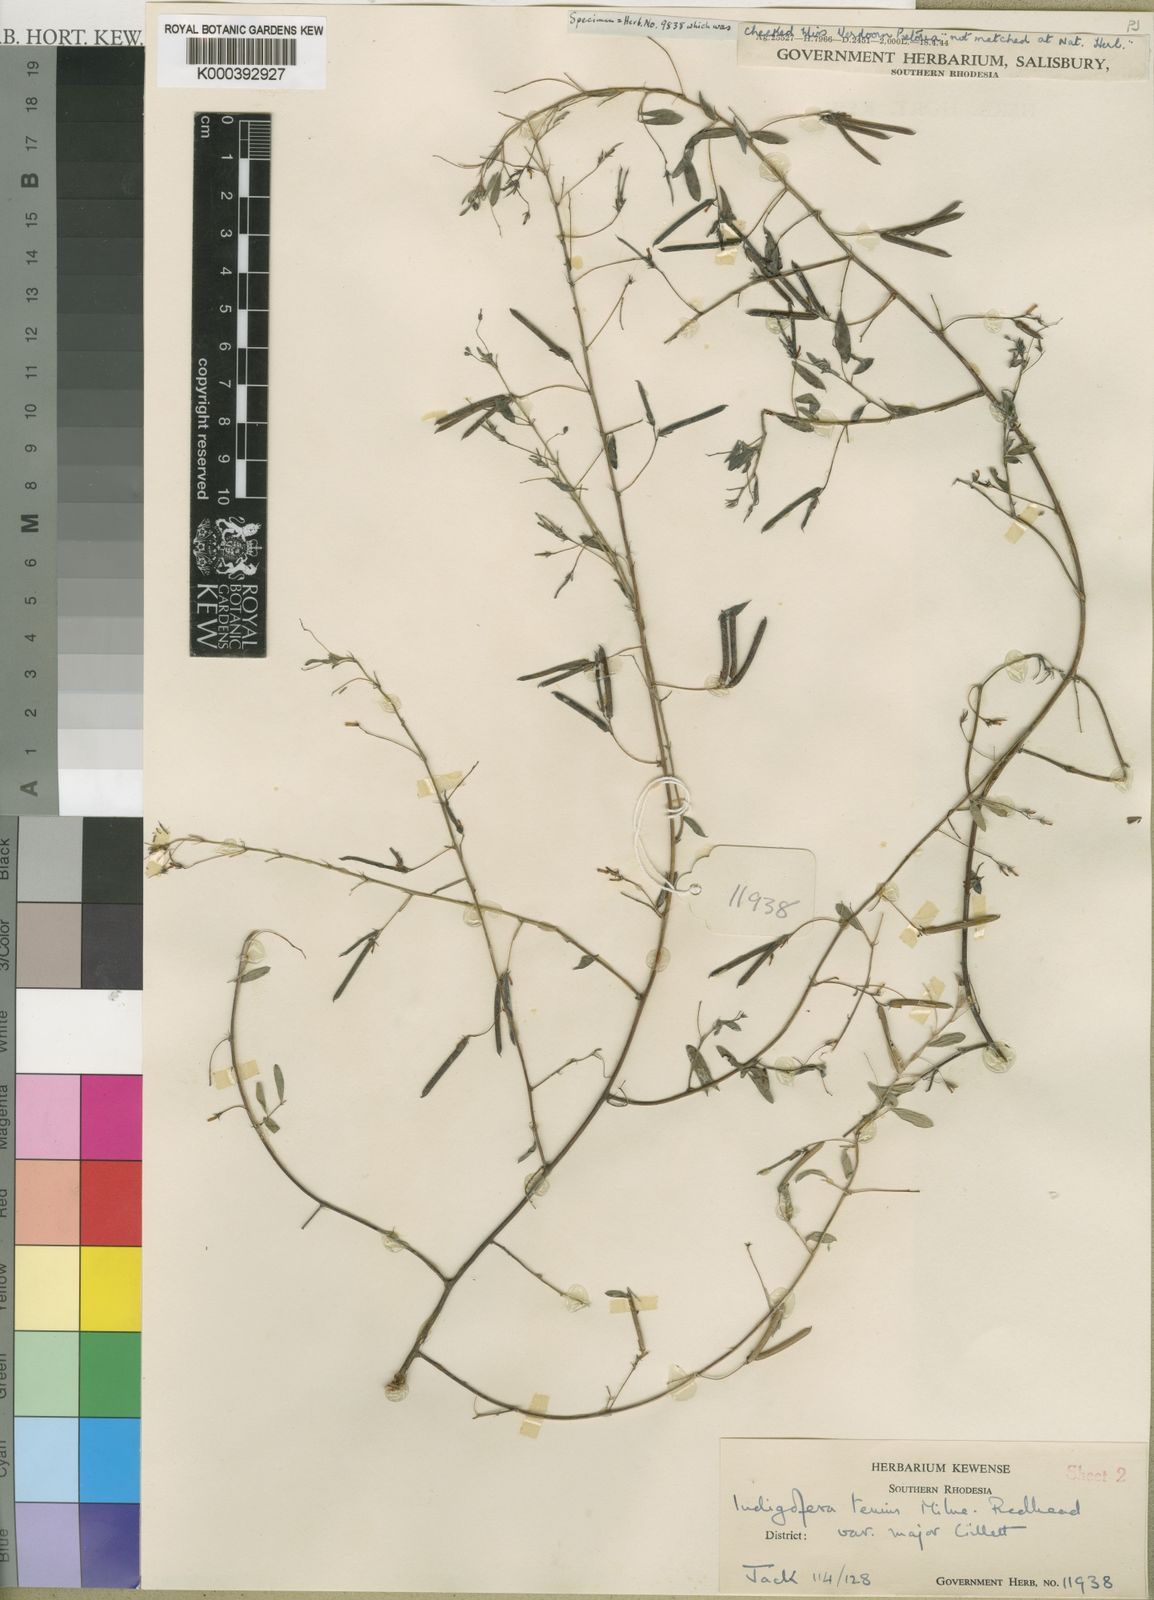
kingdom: Plantae
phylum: Tracheophyta
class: Magnoliopsida
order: Fabales
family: Fabaceae
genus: Indigofera
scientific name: Indigofera dissitiflora
